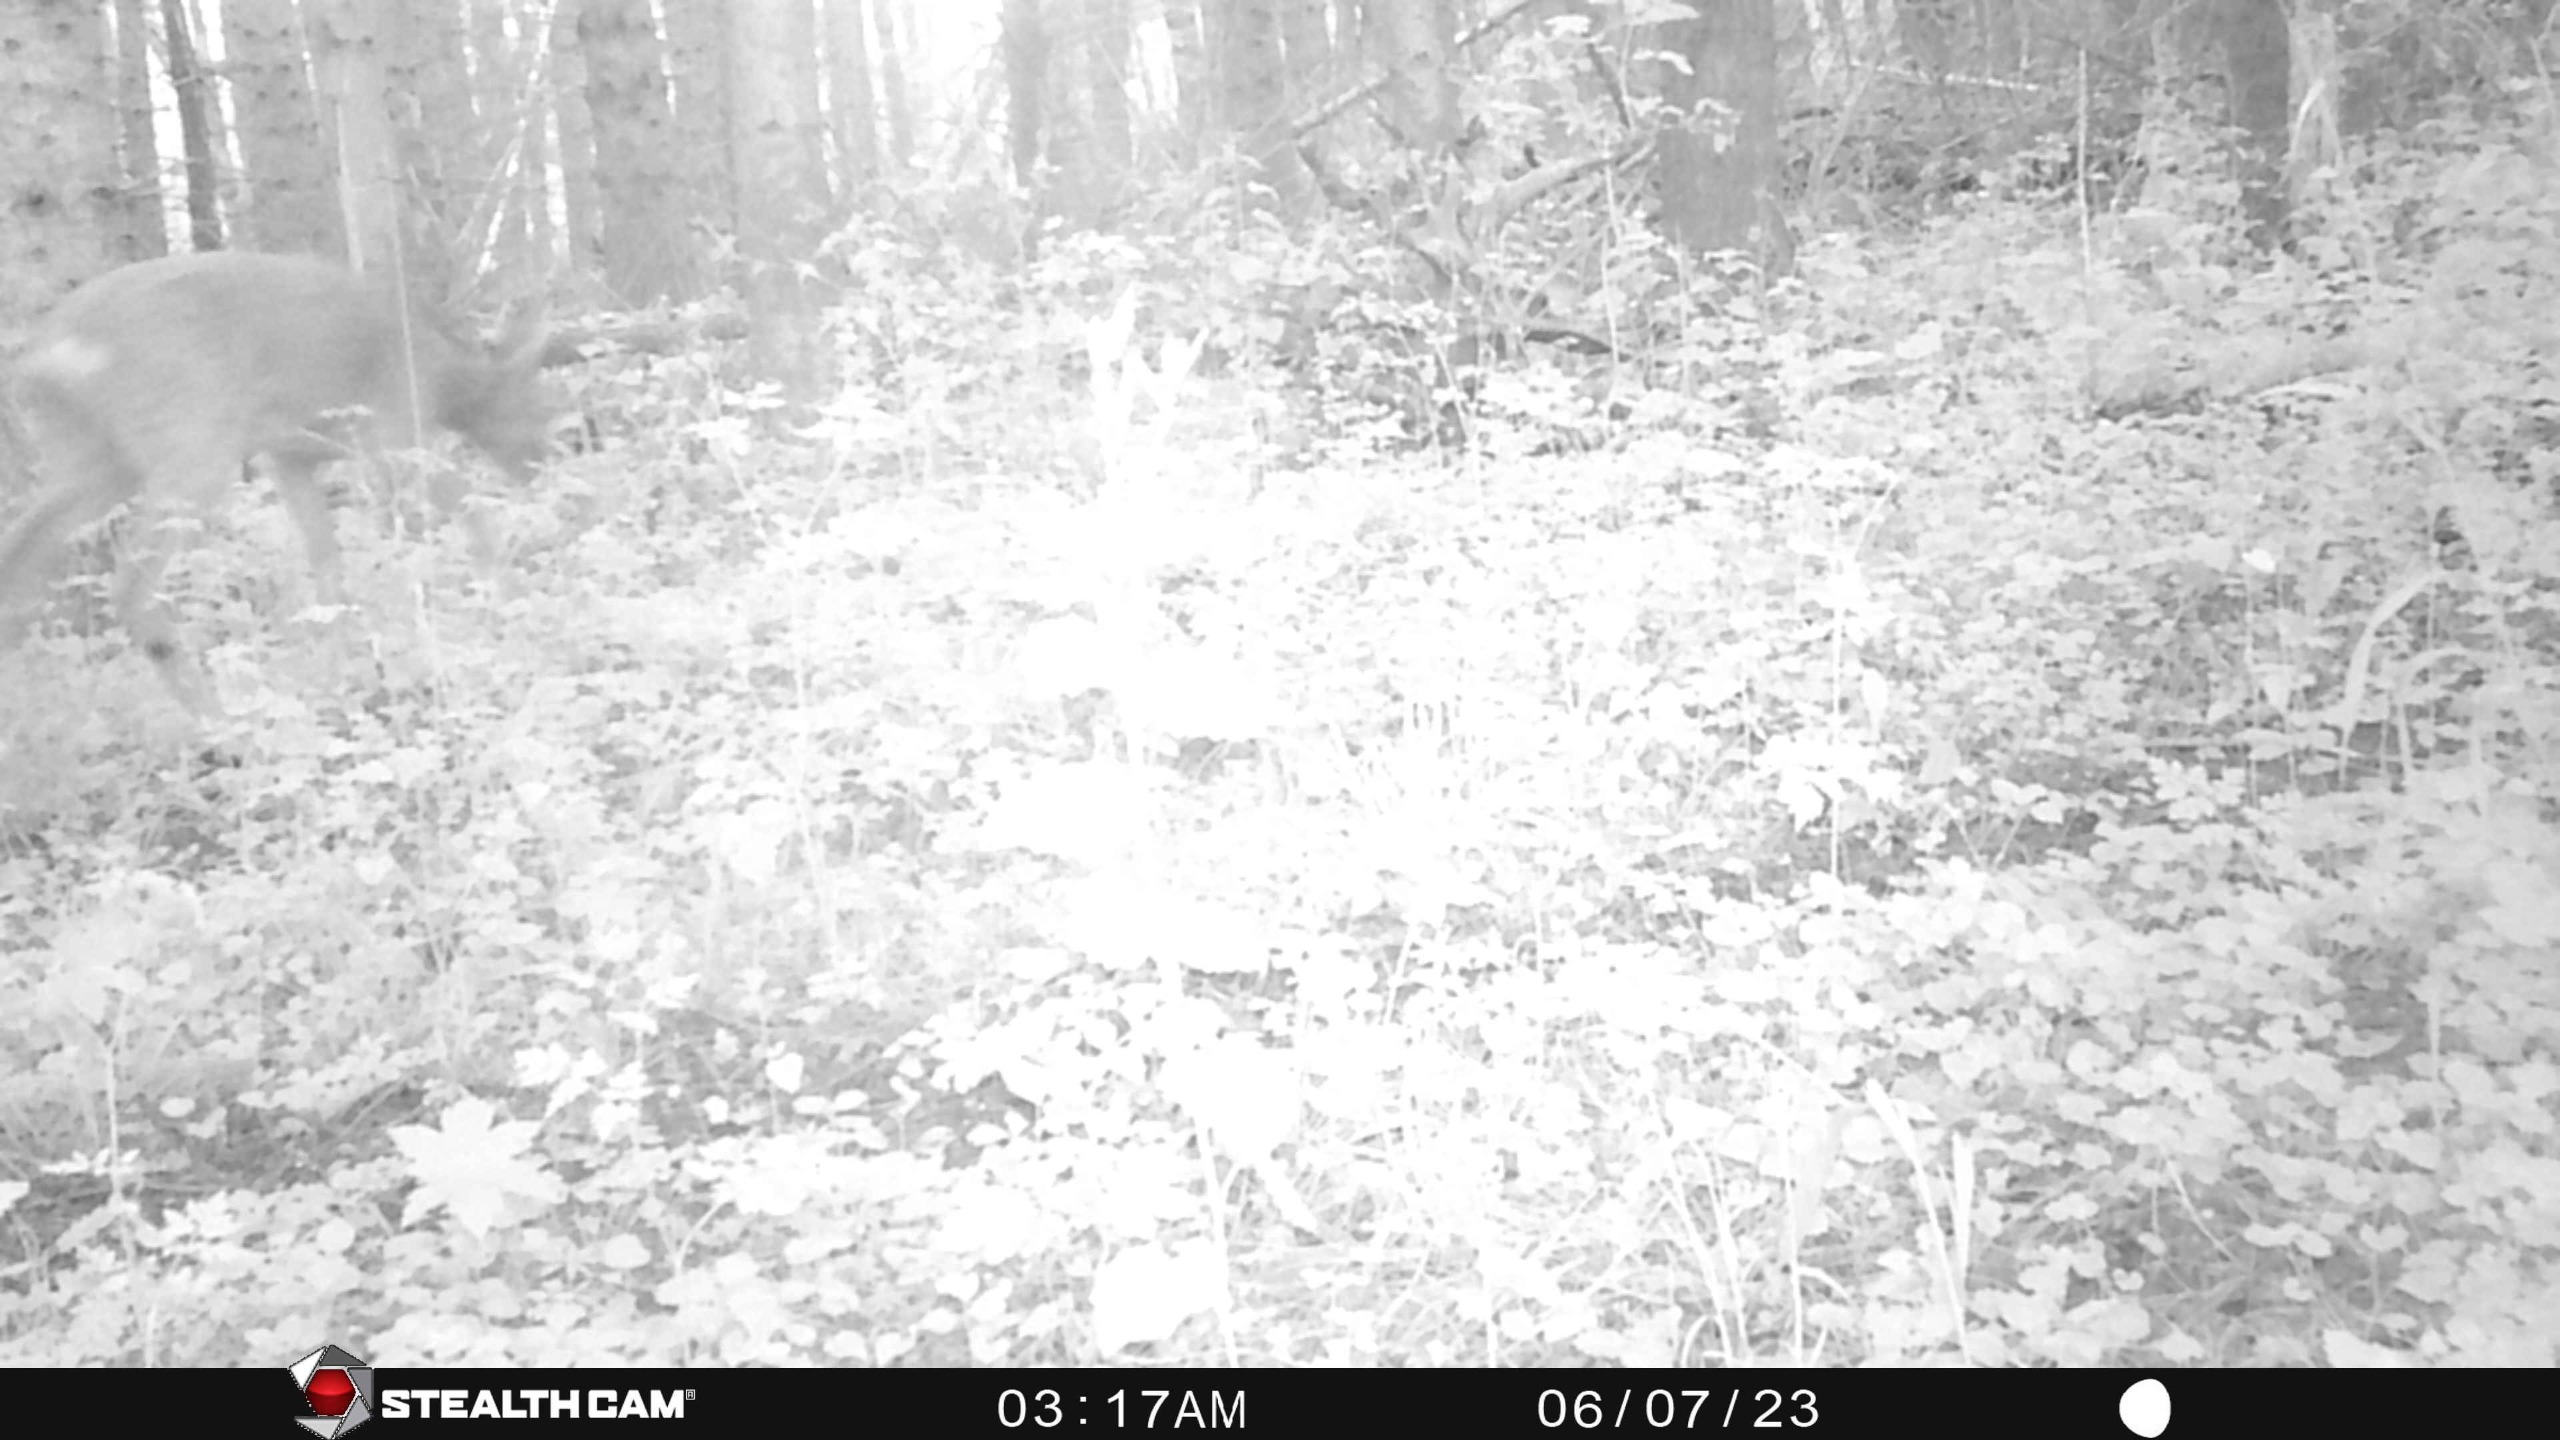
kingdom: Animalia
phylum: Chordata
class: Mammalia
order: Artiodactyla
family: Cervidae
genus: Capreolus
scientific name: Capreolus capreolus
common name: Rådyr
